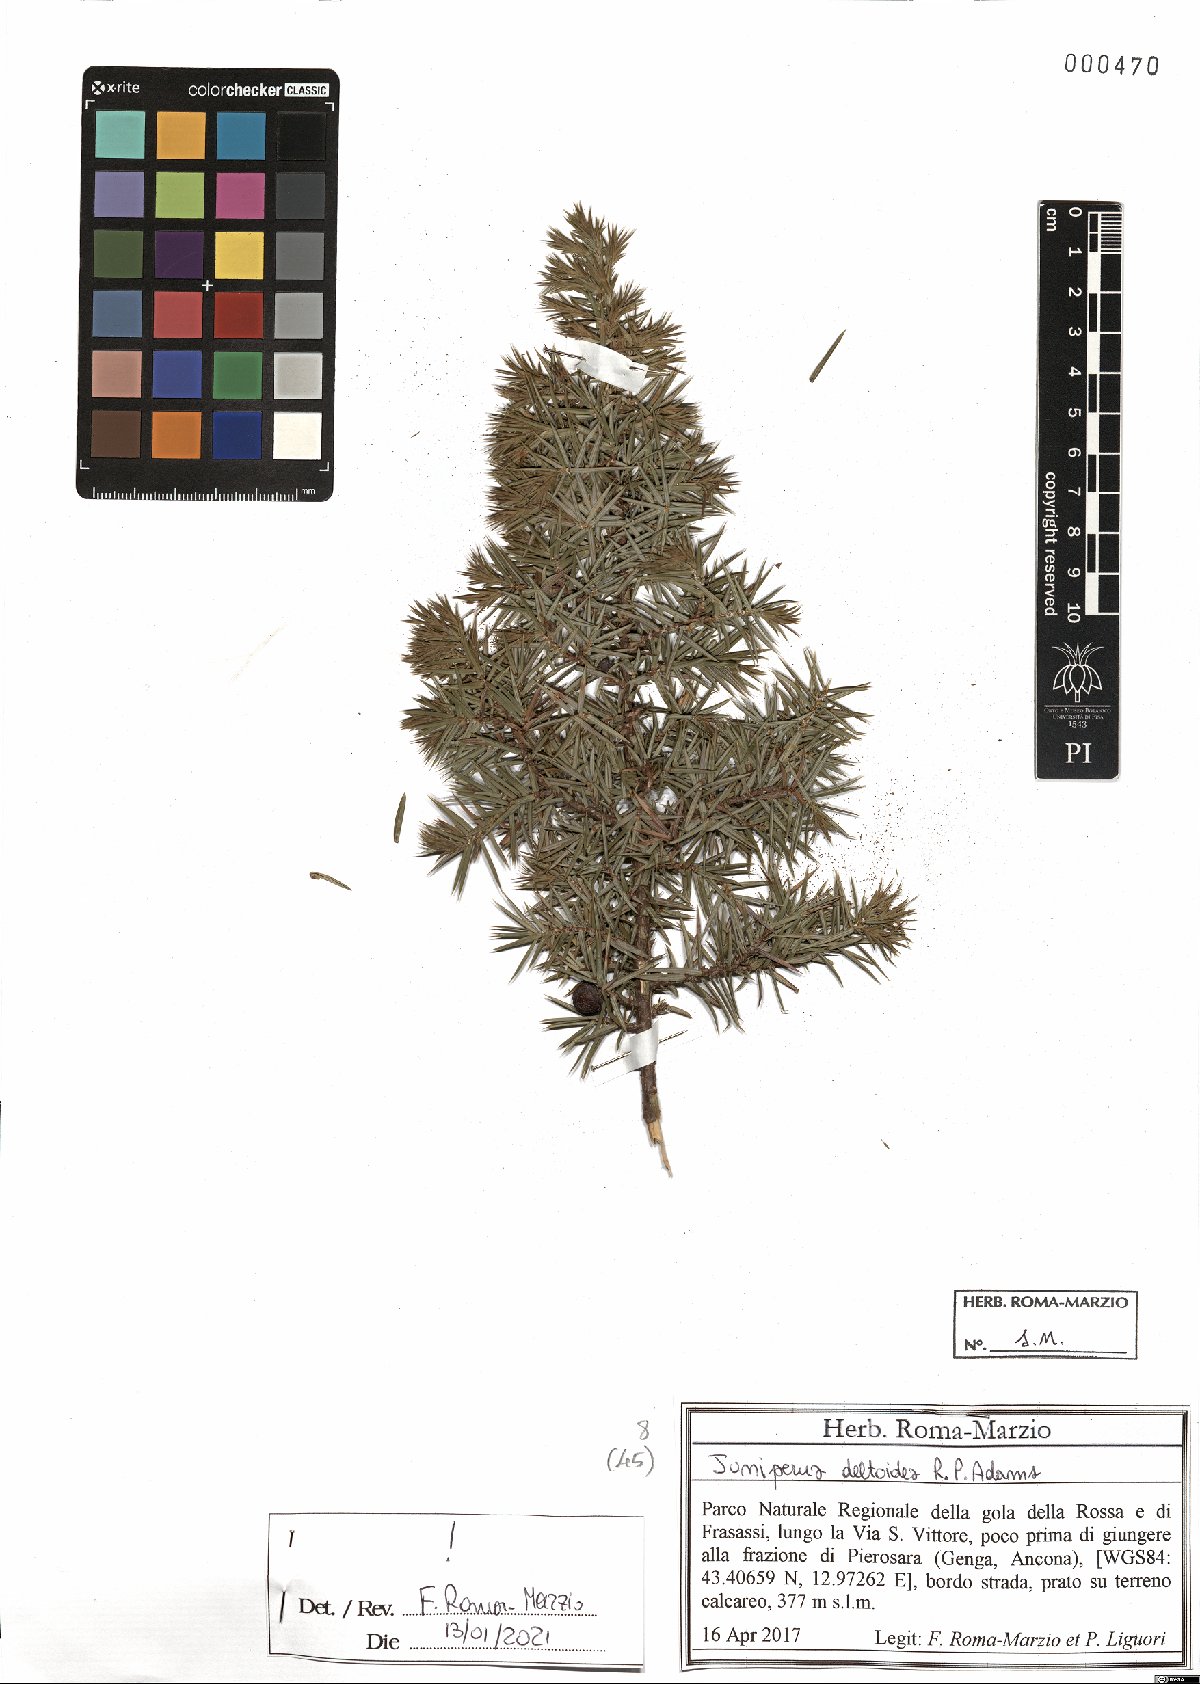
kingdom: Plantae
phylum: Tracheophyta
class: Pinopsida
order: Pinales
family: Cupressaceae
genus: Juniperus
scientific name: Juniperus oxycedrus
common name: Prickly juniper
